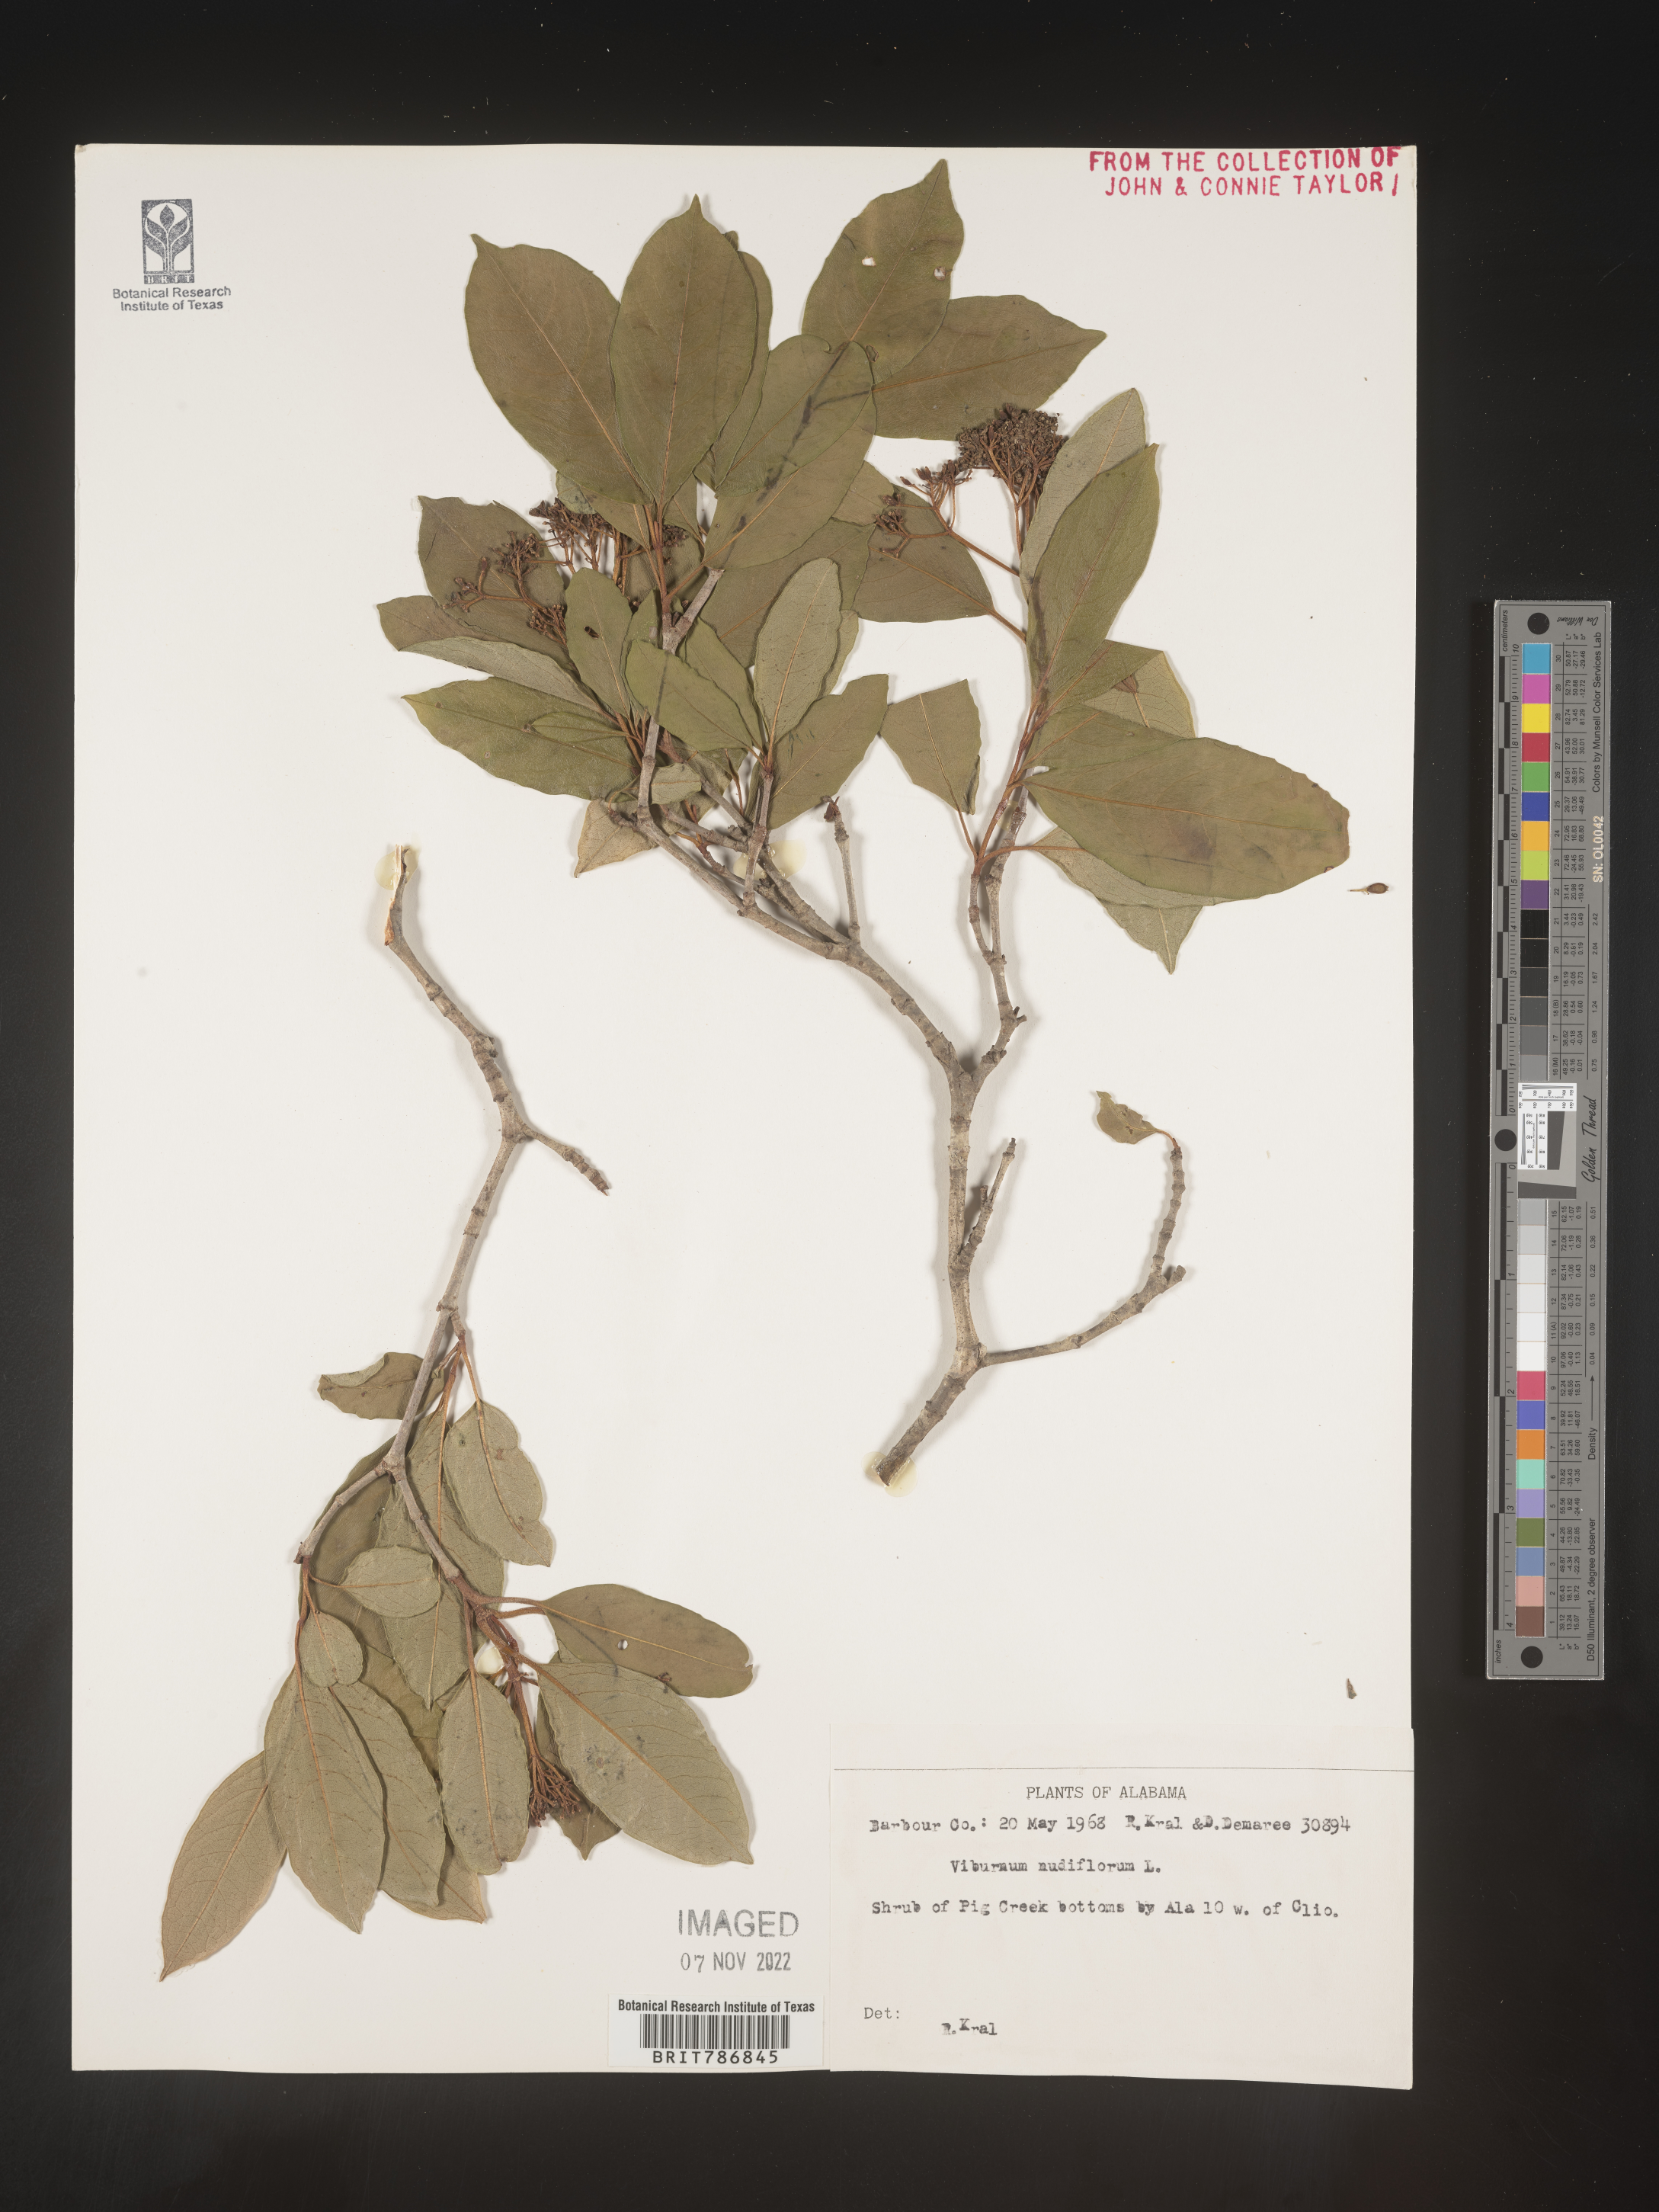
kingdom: Plantae
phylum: Tracheophyta
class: Magnoliopsida
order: Dipsacales
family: Viburnaceae
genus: Viburnum
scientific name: Viburnum nudum
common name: Possum haw
